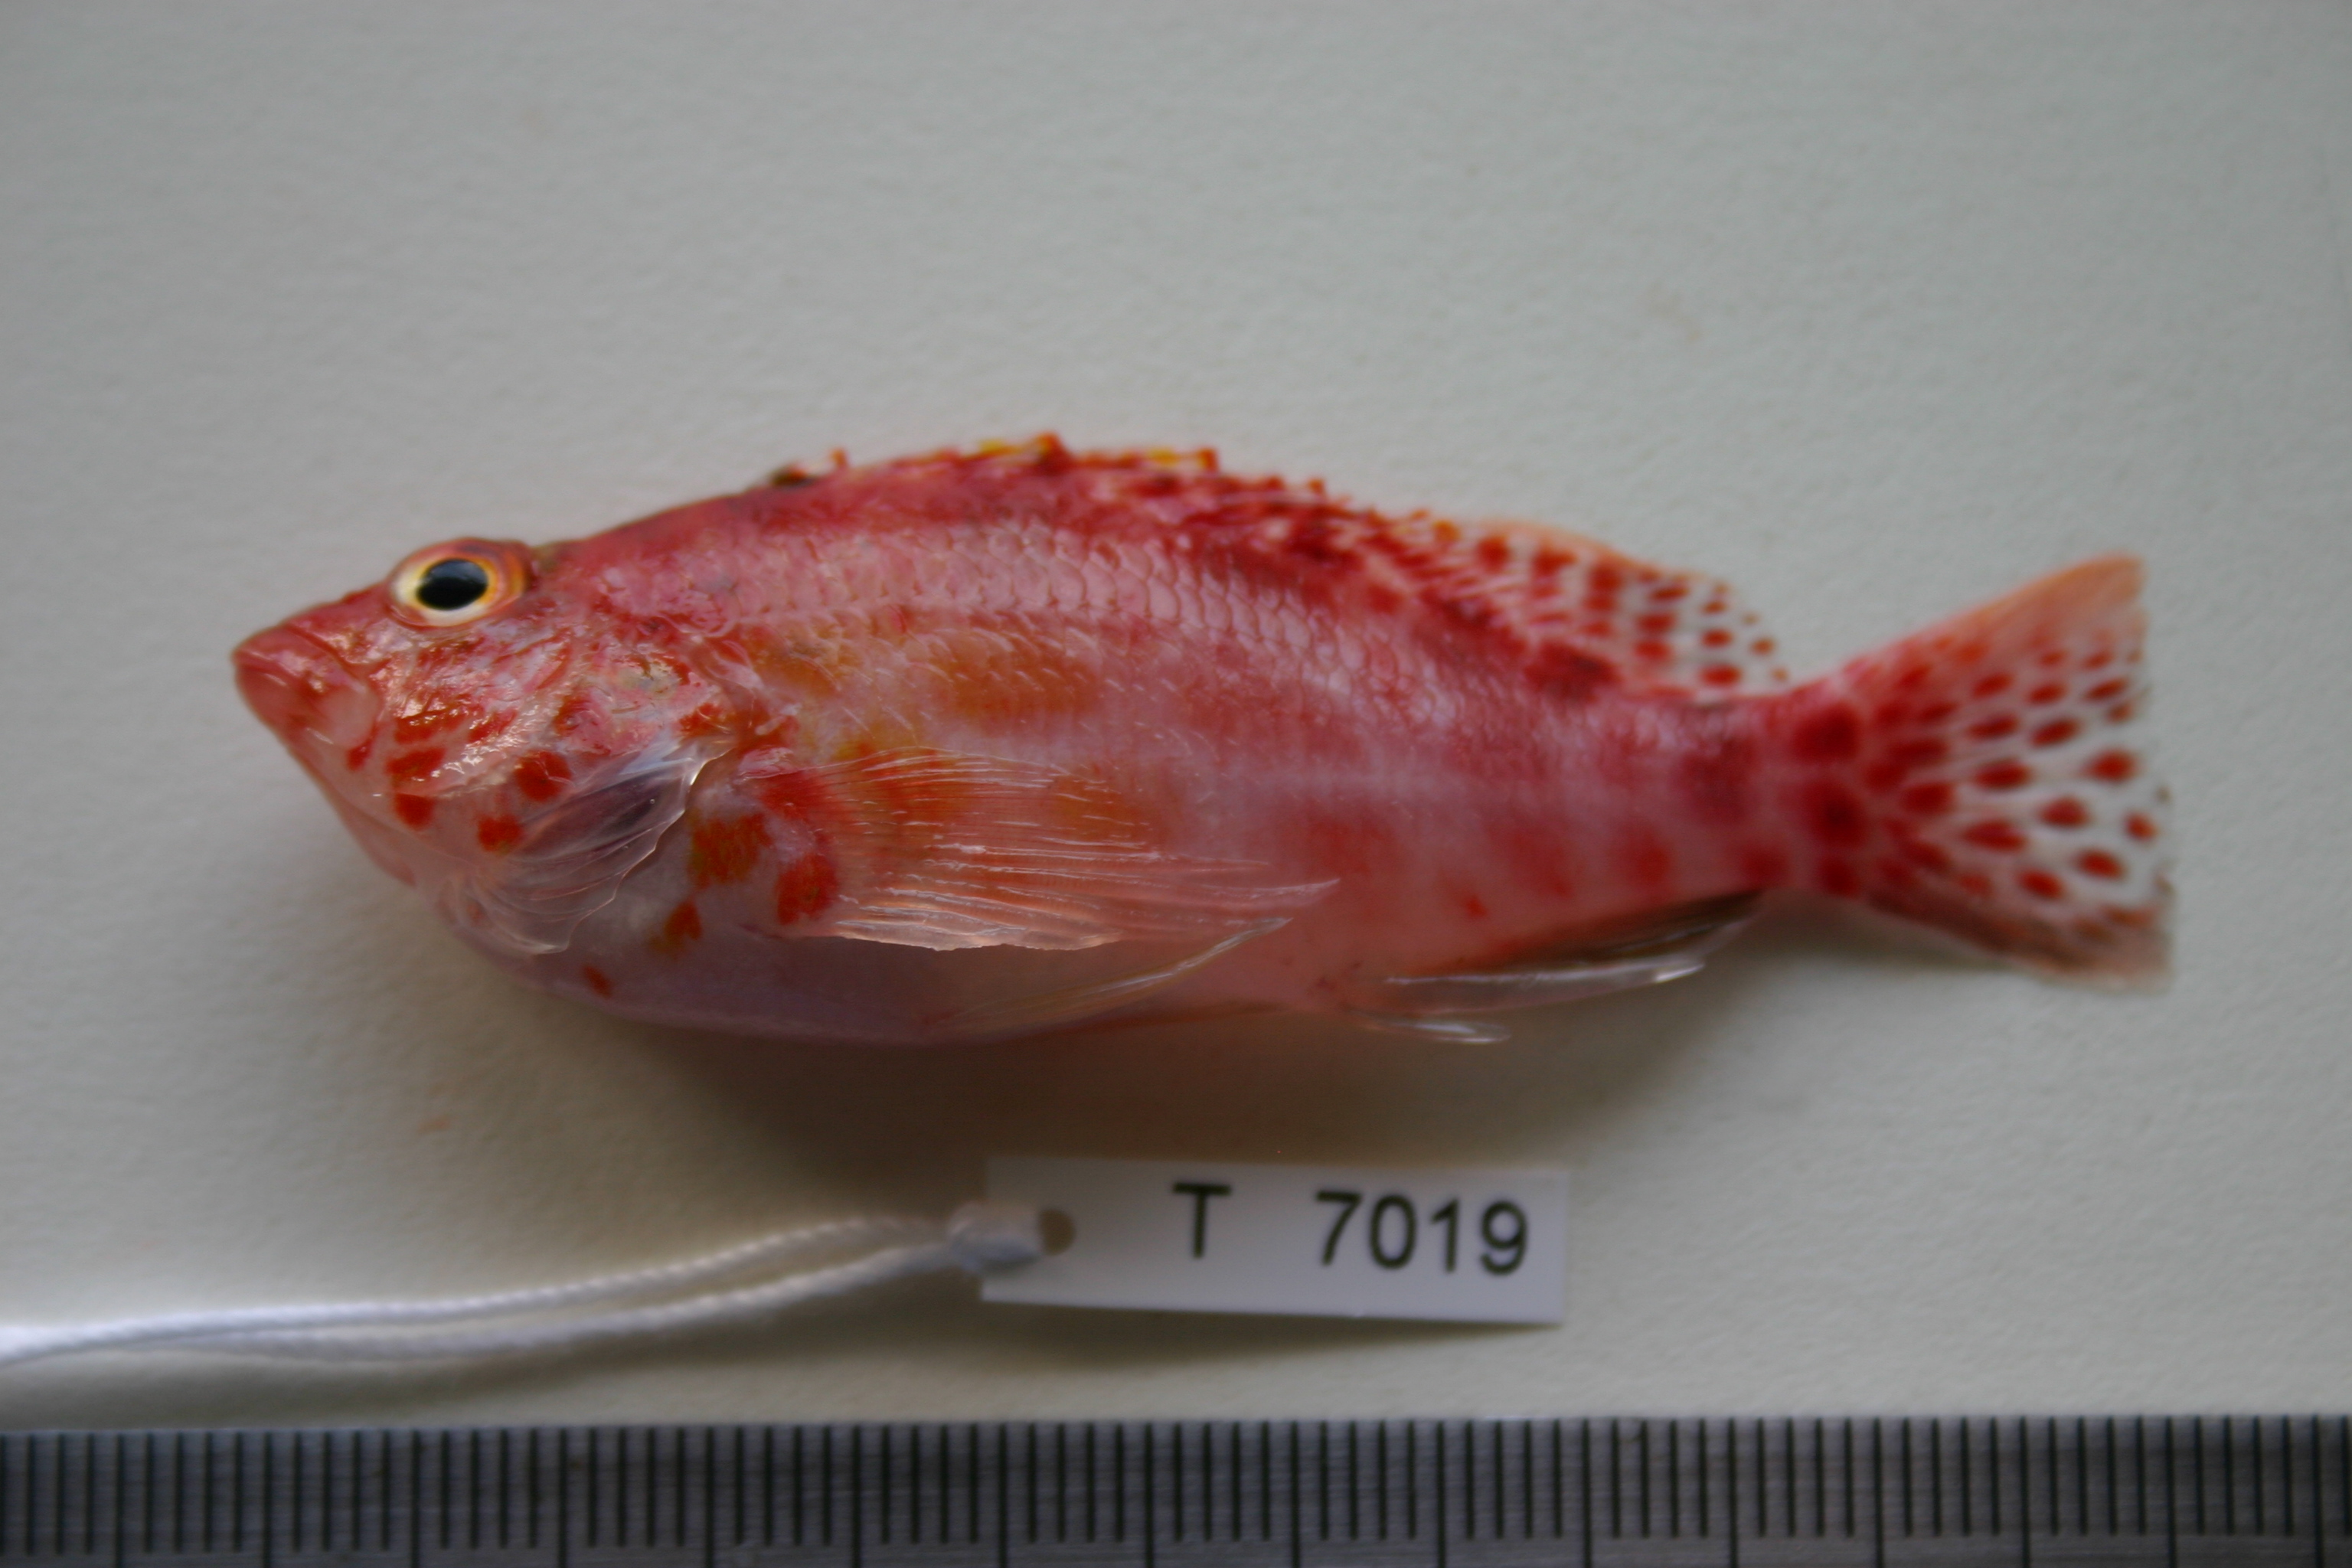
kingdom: Animalia
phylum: Chordata
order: Perciformes
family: Cirrhitidae
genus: Cirrhitichthys
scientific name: Cirrhitichthys oxycephalus
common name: Spotted hawkfish
